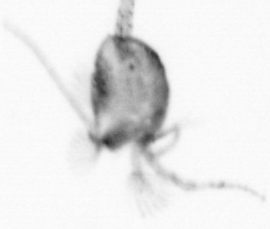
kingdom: Animalia
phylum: Arthropoda
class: Copepoda
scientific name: Copepoda
